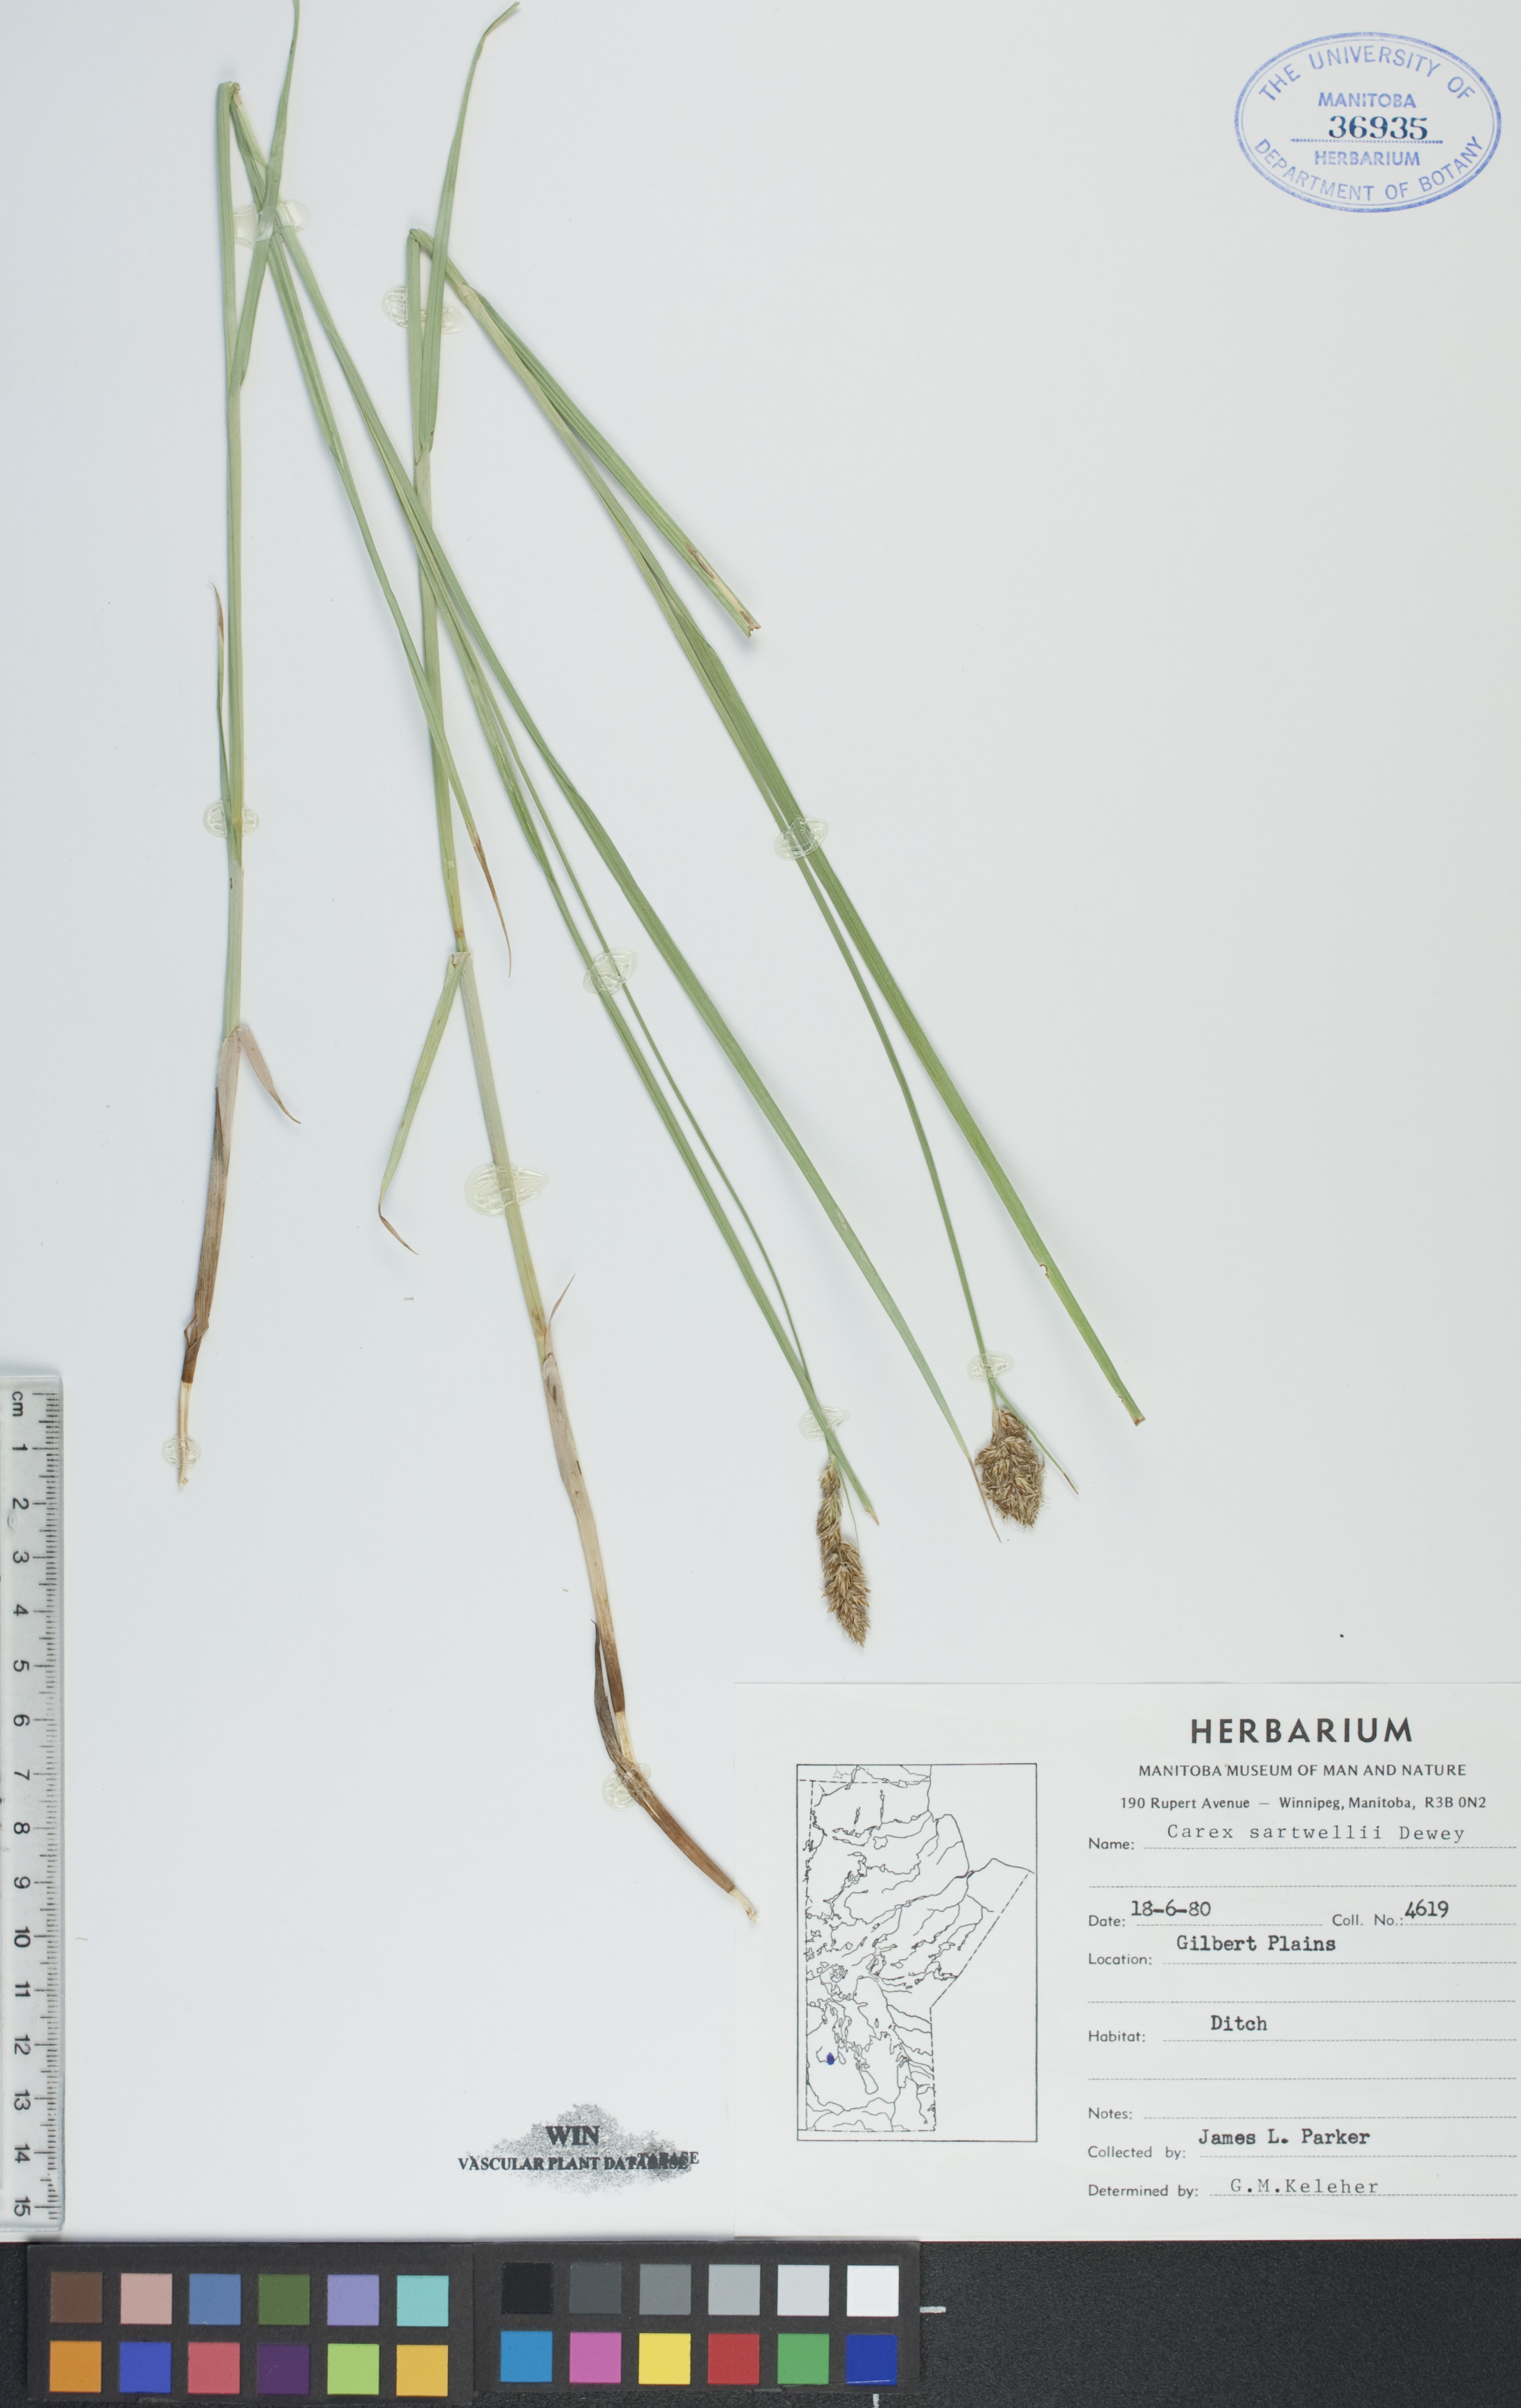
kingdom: Plantae
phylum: Tracheophyta
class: Liliopsida
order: Poales
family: Cyperaceae
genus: Carex
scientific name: Carex sartwellii
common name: Sartwell's sedge
